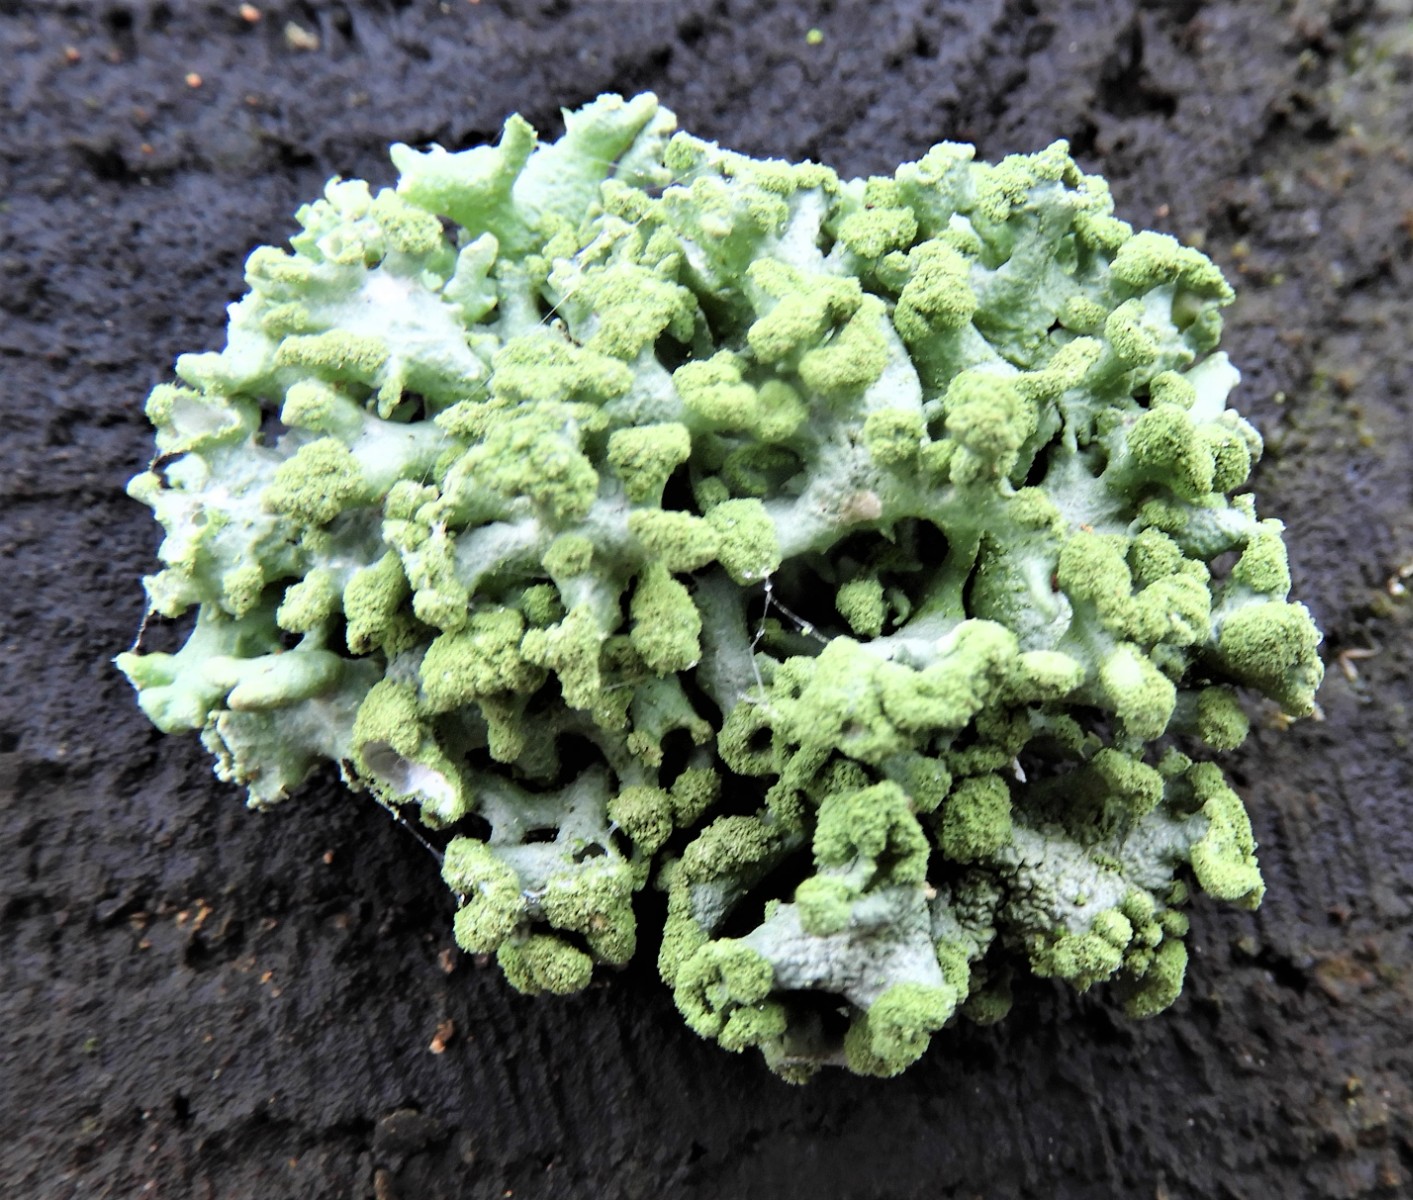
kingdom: Fungi
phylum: Ascomycota
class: Lecanoromycetes
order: Lecanorales
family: Parmeliaceae
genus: Hypogymnia
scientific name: Hypogymnia tubulosa
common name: finger-kvistlav
